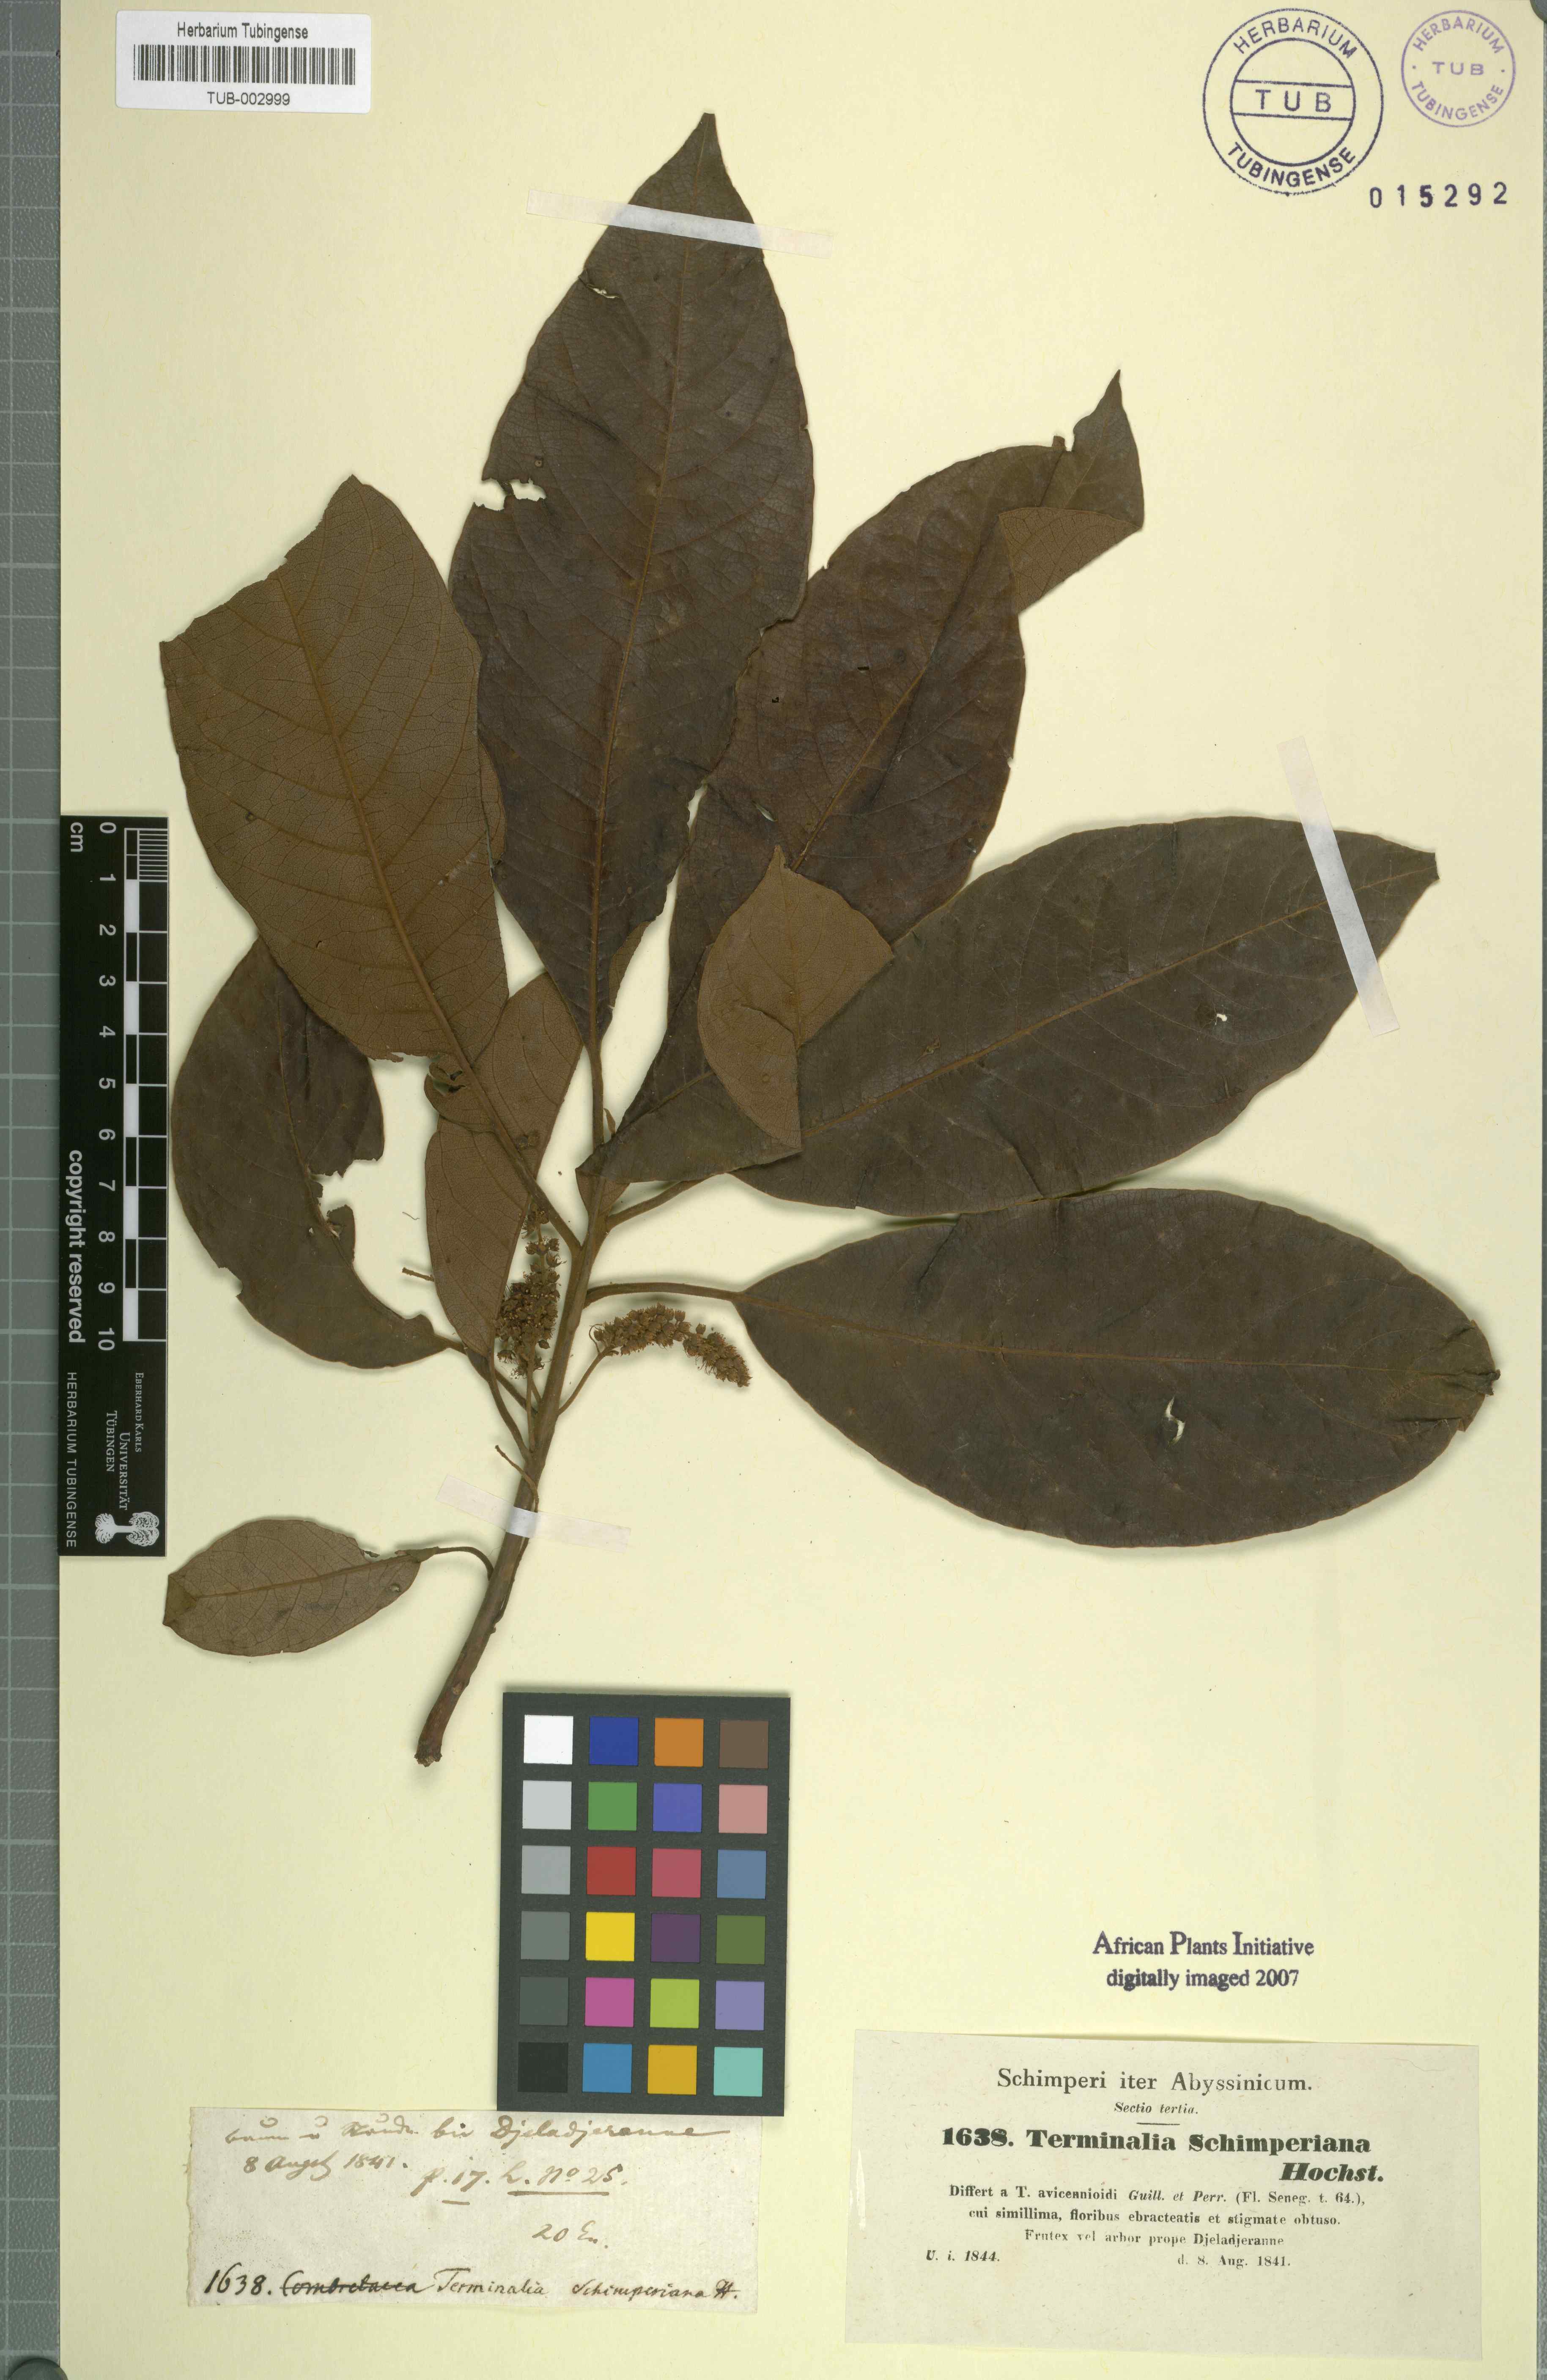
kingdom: Plantae
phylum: Tracheophyta
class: Magnoliopsida
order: Myrtales
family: Combretaceae
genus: Terminalia
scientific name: Terminalia avicennioides
